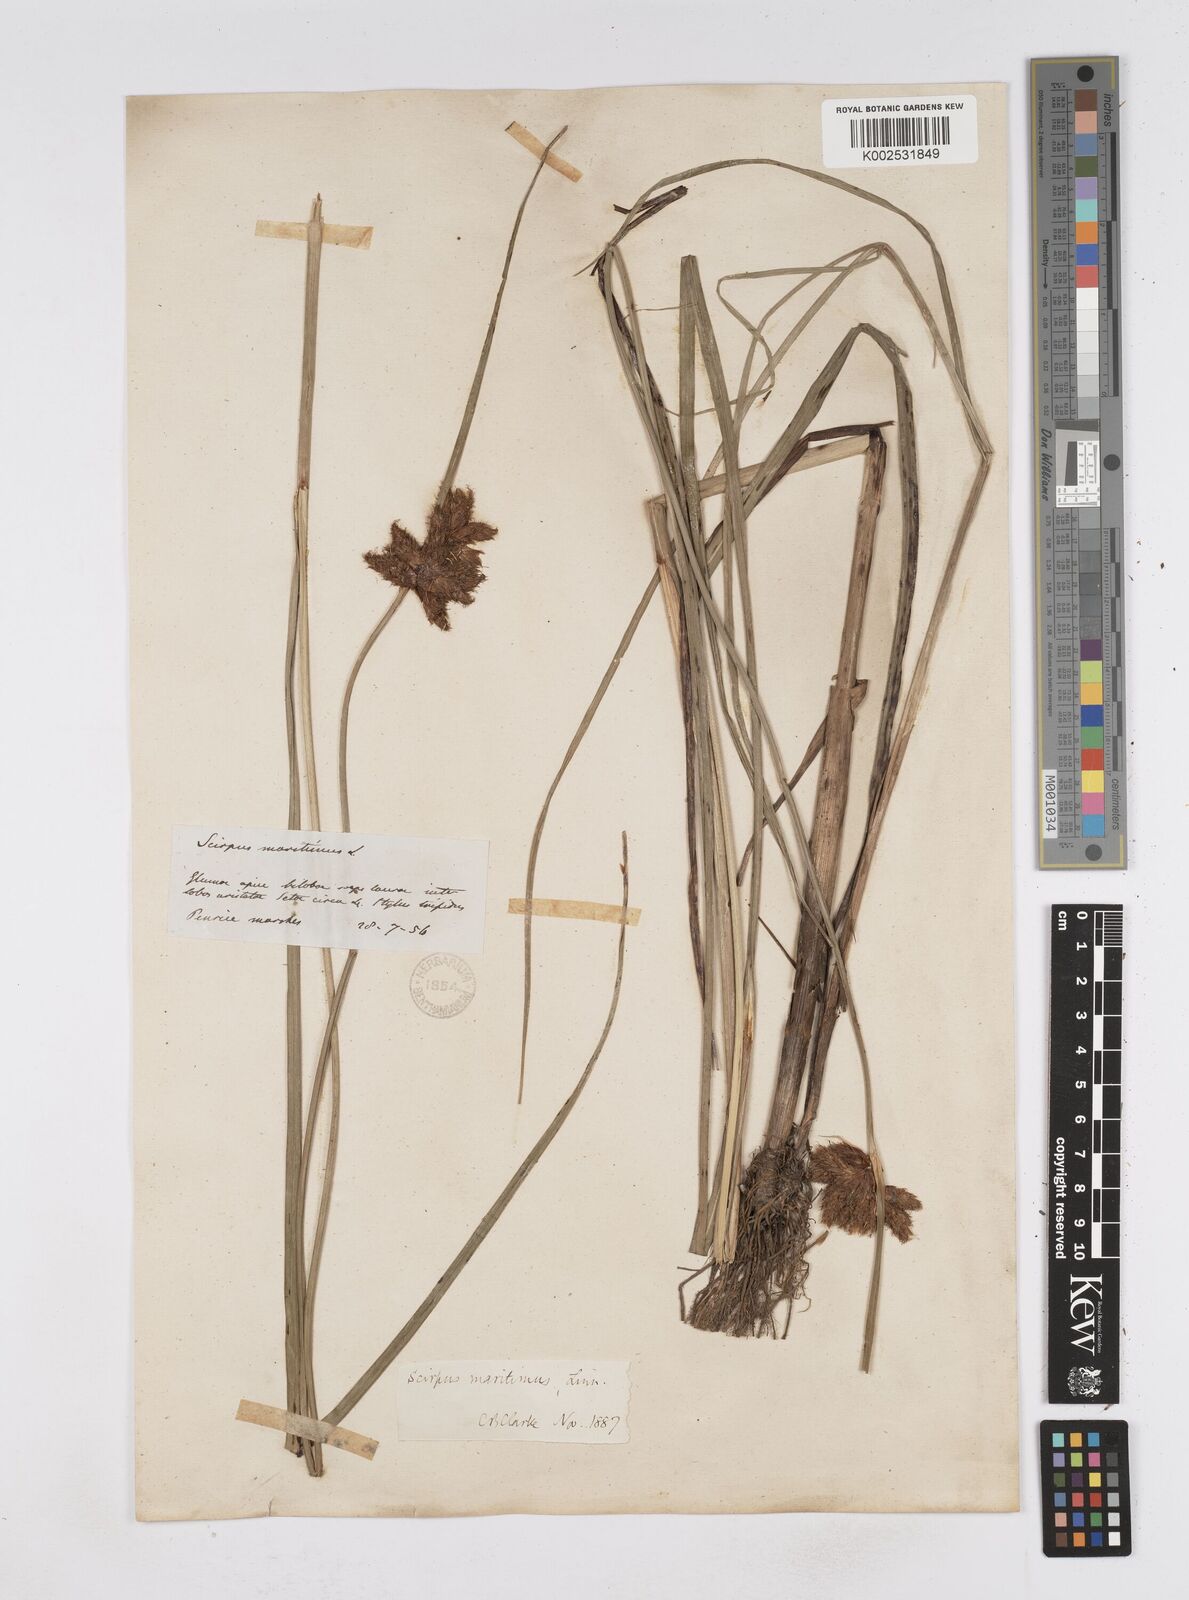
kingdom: Plantae
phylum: Tracheophyta
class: Liliopsida
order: Poales
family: Cyperaceae
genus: Bolboschoenus
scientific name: Bolboschoenus maritimus
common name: Sea club-rush
